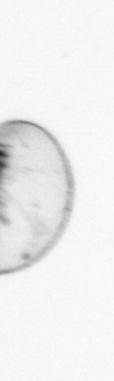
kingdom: Chromista
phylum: Myzozoa
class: Dinophyceae
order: Noctilucales
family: Noctilucaceae
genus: Noctiluca
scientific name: Noctiluca scintillans
